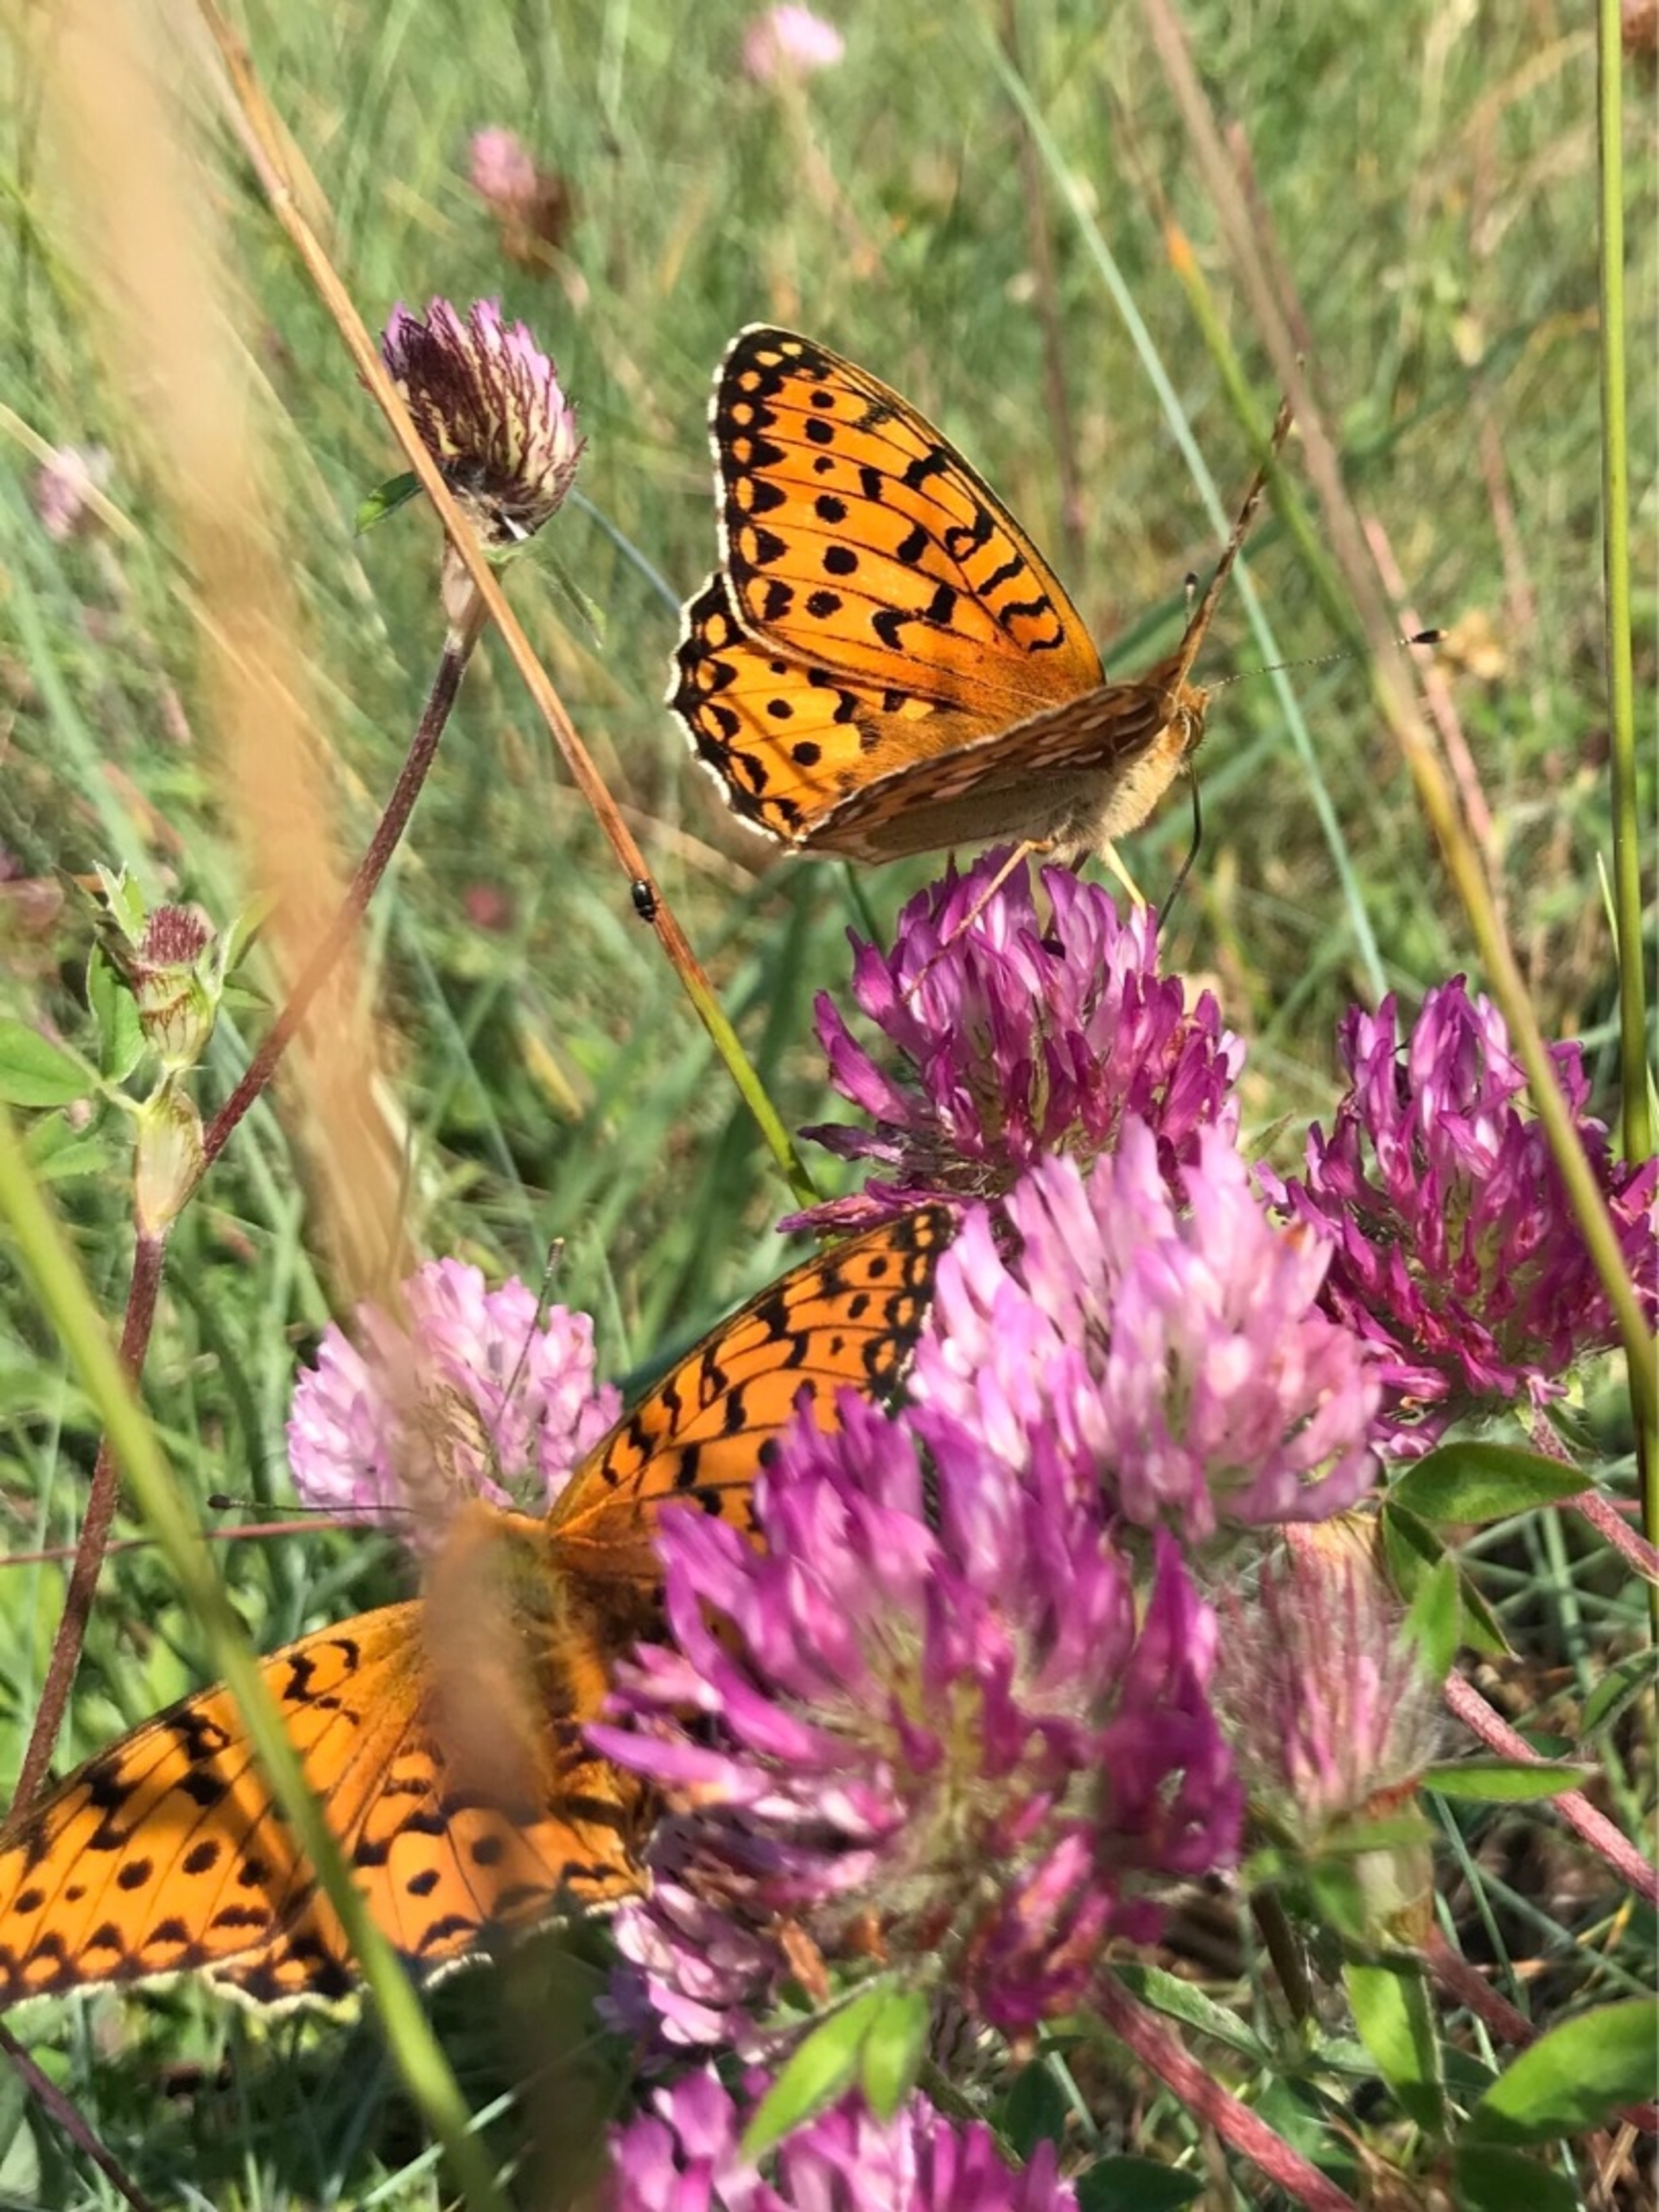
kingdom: Animalia
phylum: Arthropoda
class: Insecta
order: Lepidoptera
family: Nymphalidae
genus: Speyeria
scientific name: Speyeria aglaja
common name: Markperlemorsommerfugl
